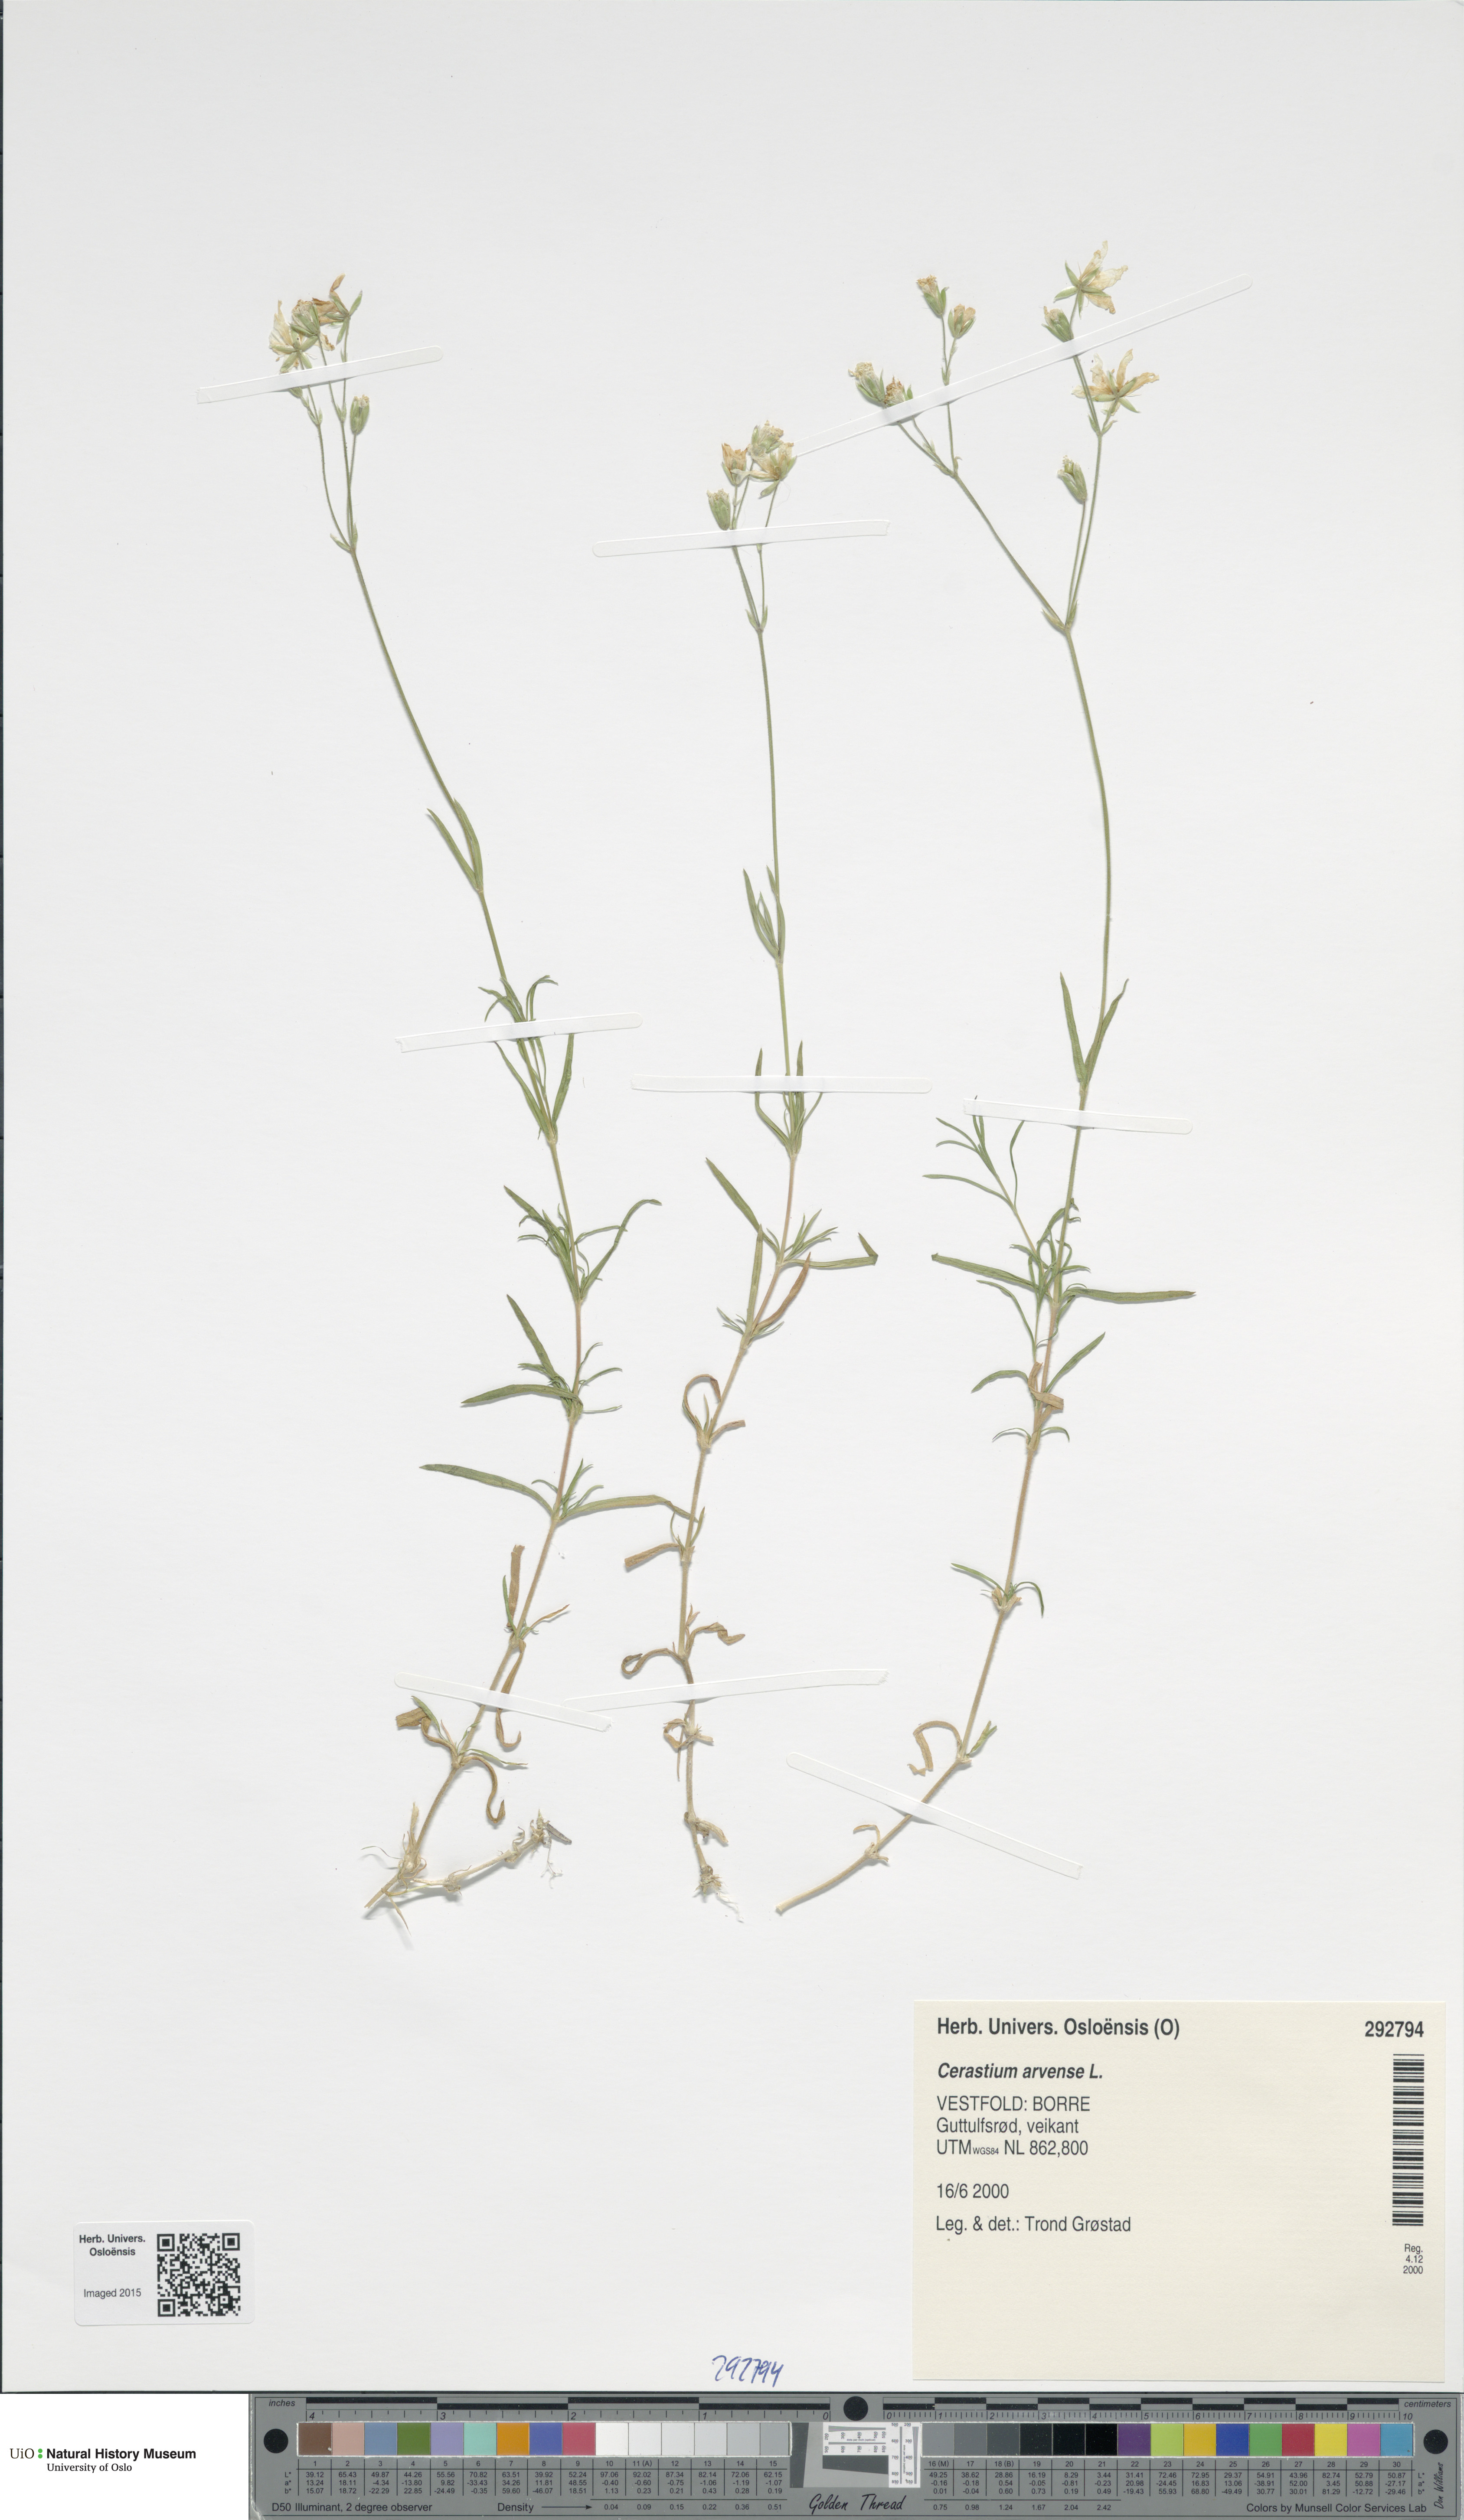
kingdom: Plantae
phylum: Tracheophyta
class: Magnoliopsida
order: Caryophyllales
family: Caryophyllaceae
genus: Cerastium
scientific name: Cerastium arvense
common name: Field mouse-ear
